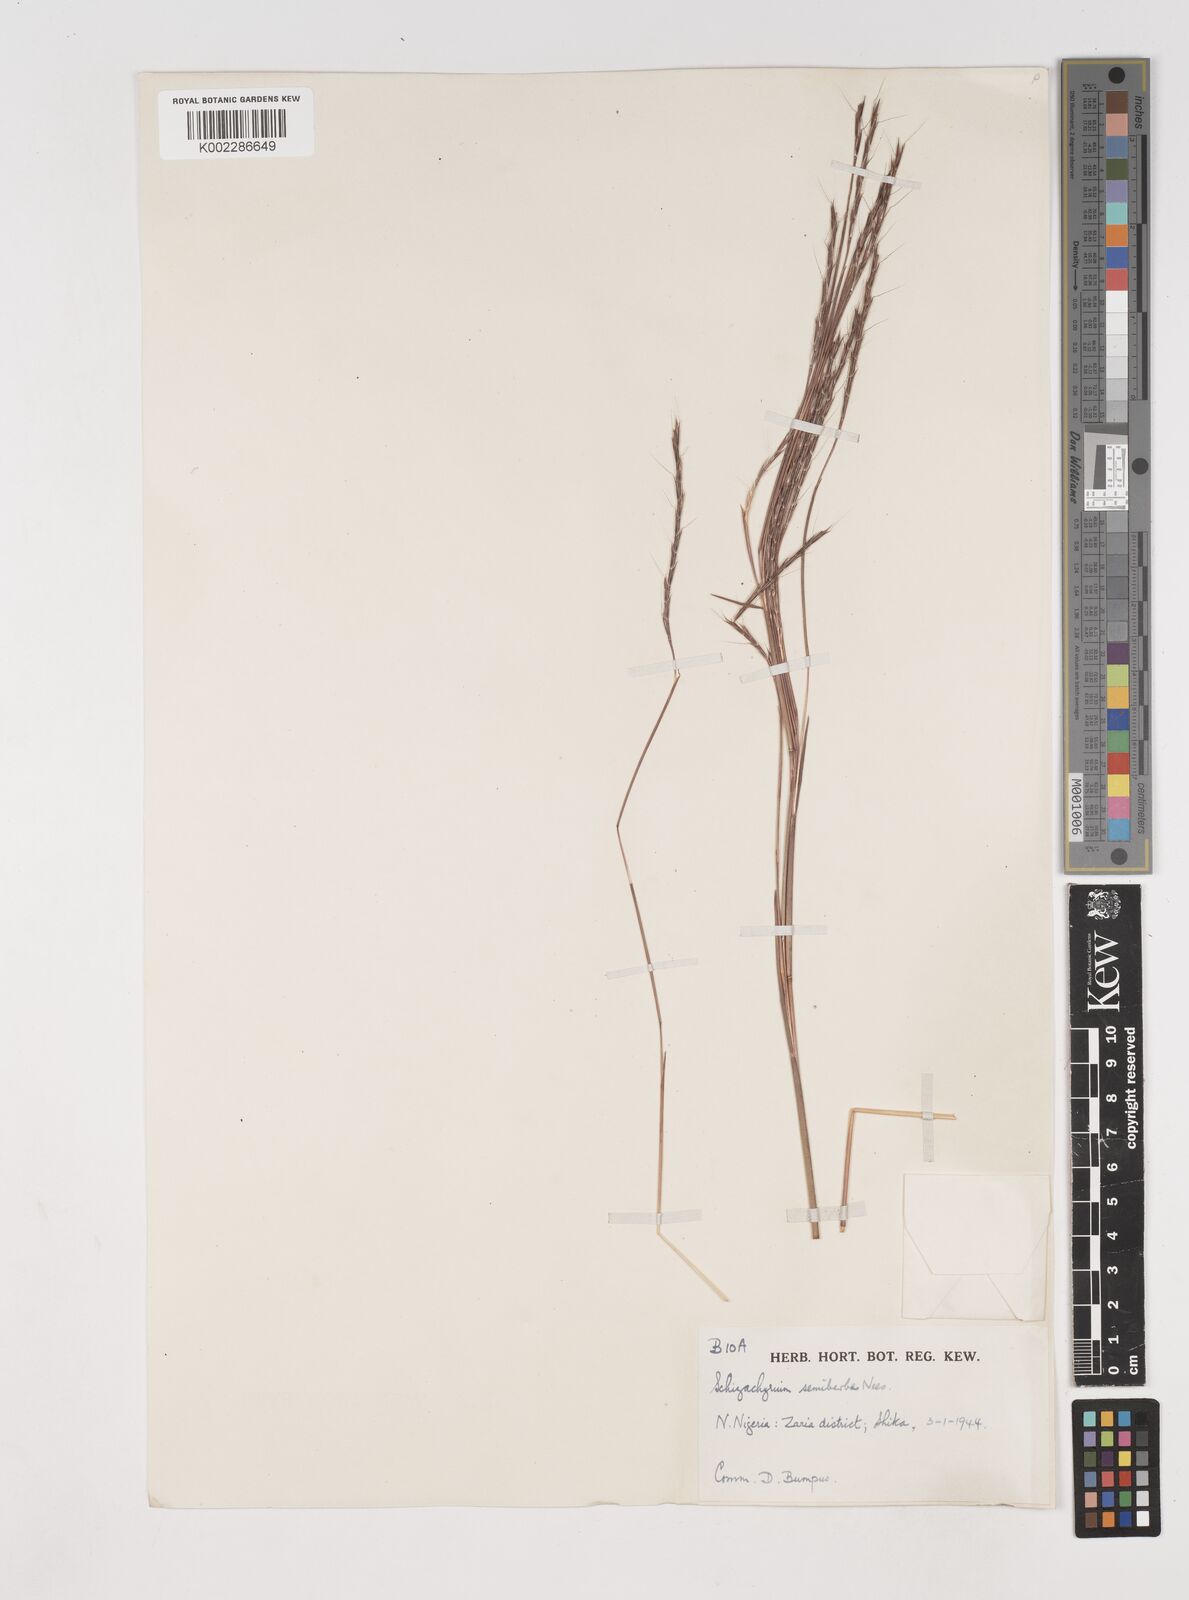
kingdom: Plantae
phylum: Tracheophyta
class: Liliopsida
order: Poales
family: Poaceae
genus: Schizachyrium
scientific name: Schizachyrium sanguineum
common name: Crimson bluestem
